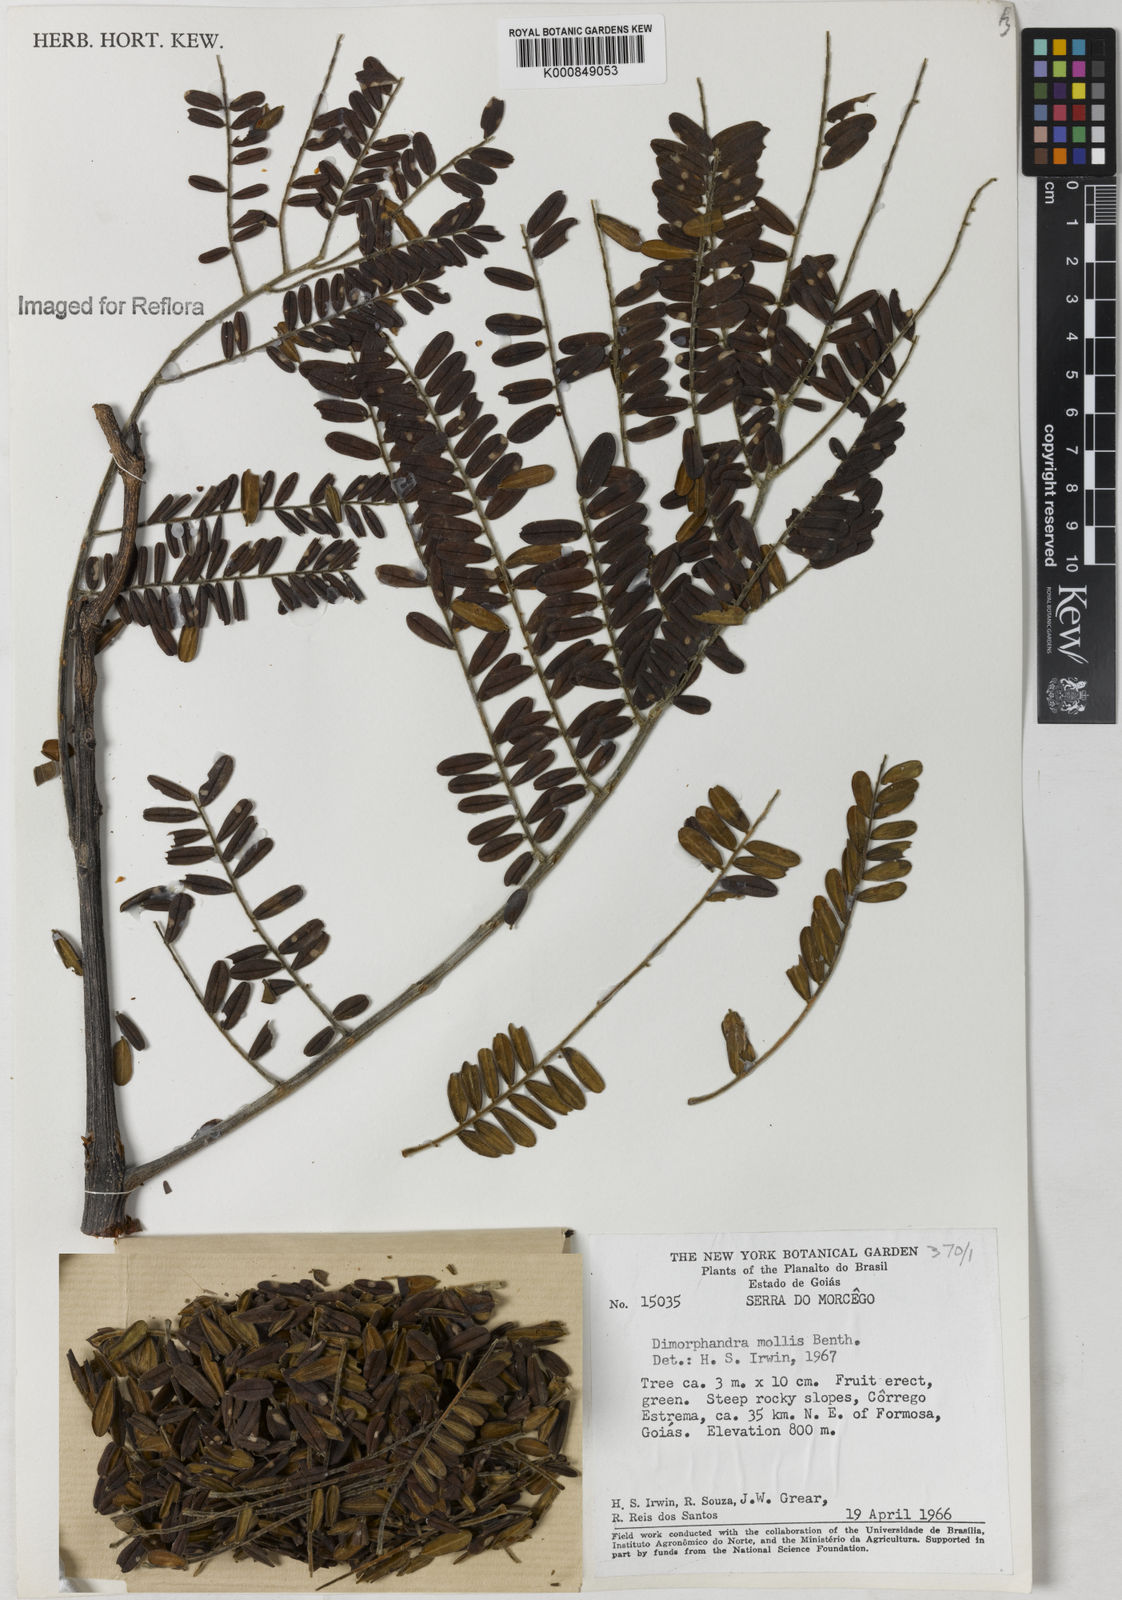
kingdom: Plantae
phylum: Tracheophyta
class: Magnoliopsida
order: Fabales
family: Fabaceae
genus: Dimorphandra
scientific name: Dimorphandra mollis
